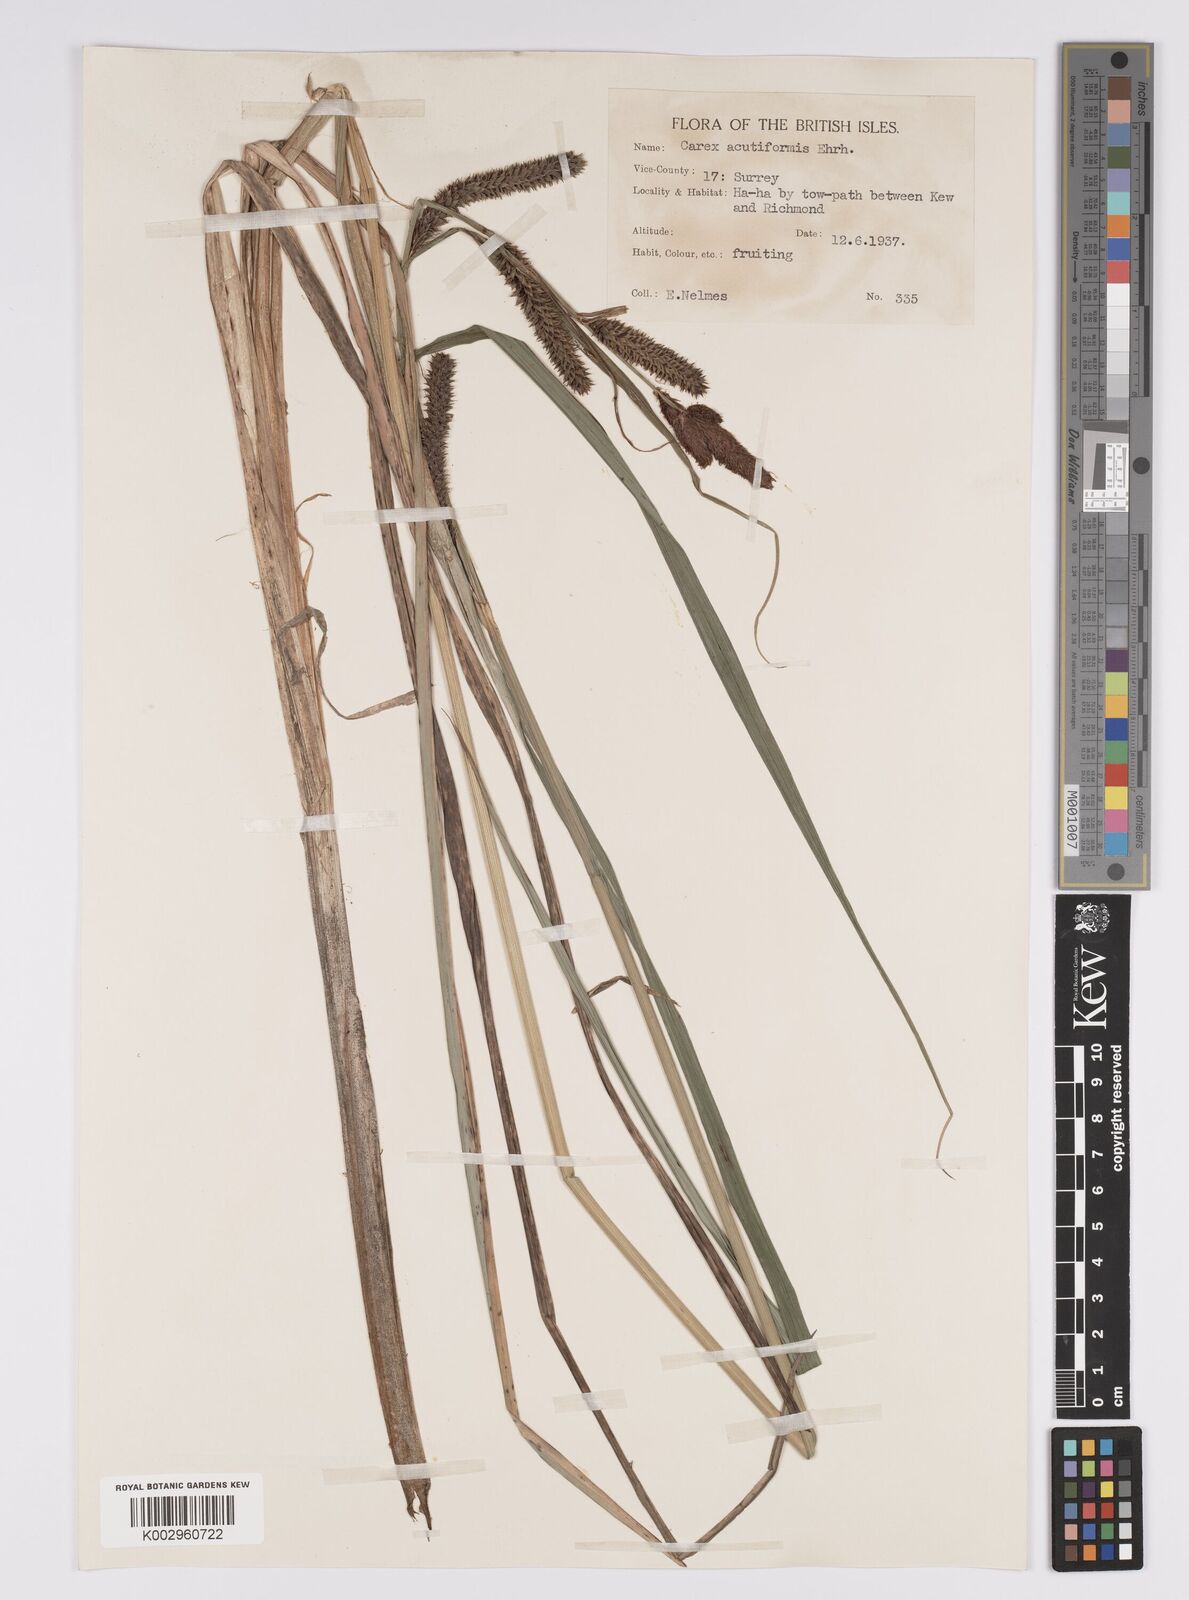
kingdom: Plantae
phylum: Tracheophyta
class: Liliopsida
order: Poales
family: Cyperaceae
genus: Carex
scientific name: Carex acutiformis
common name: Lesser pond-sedge
